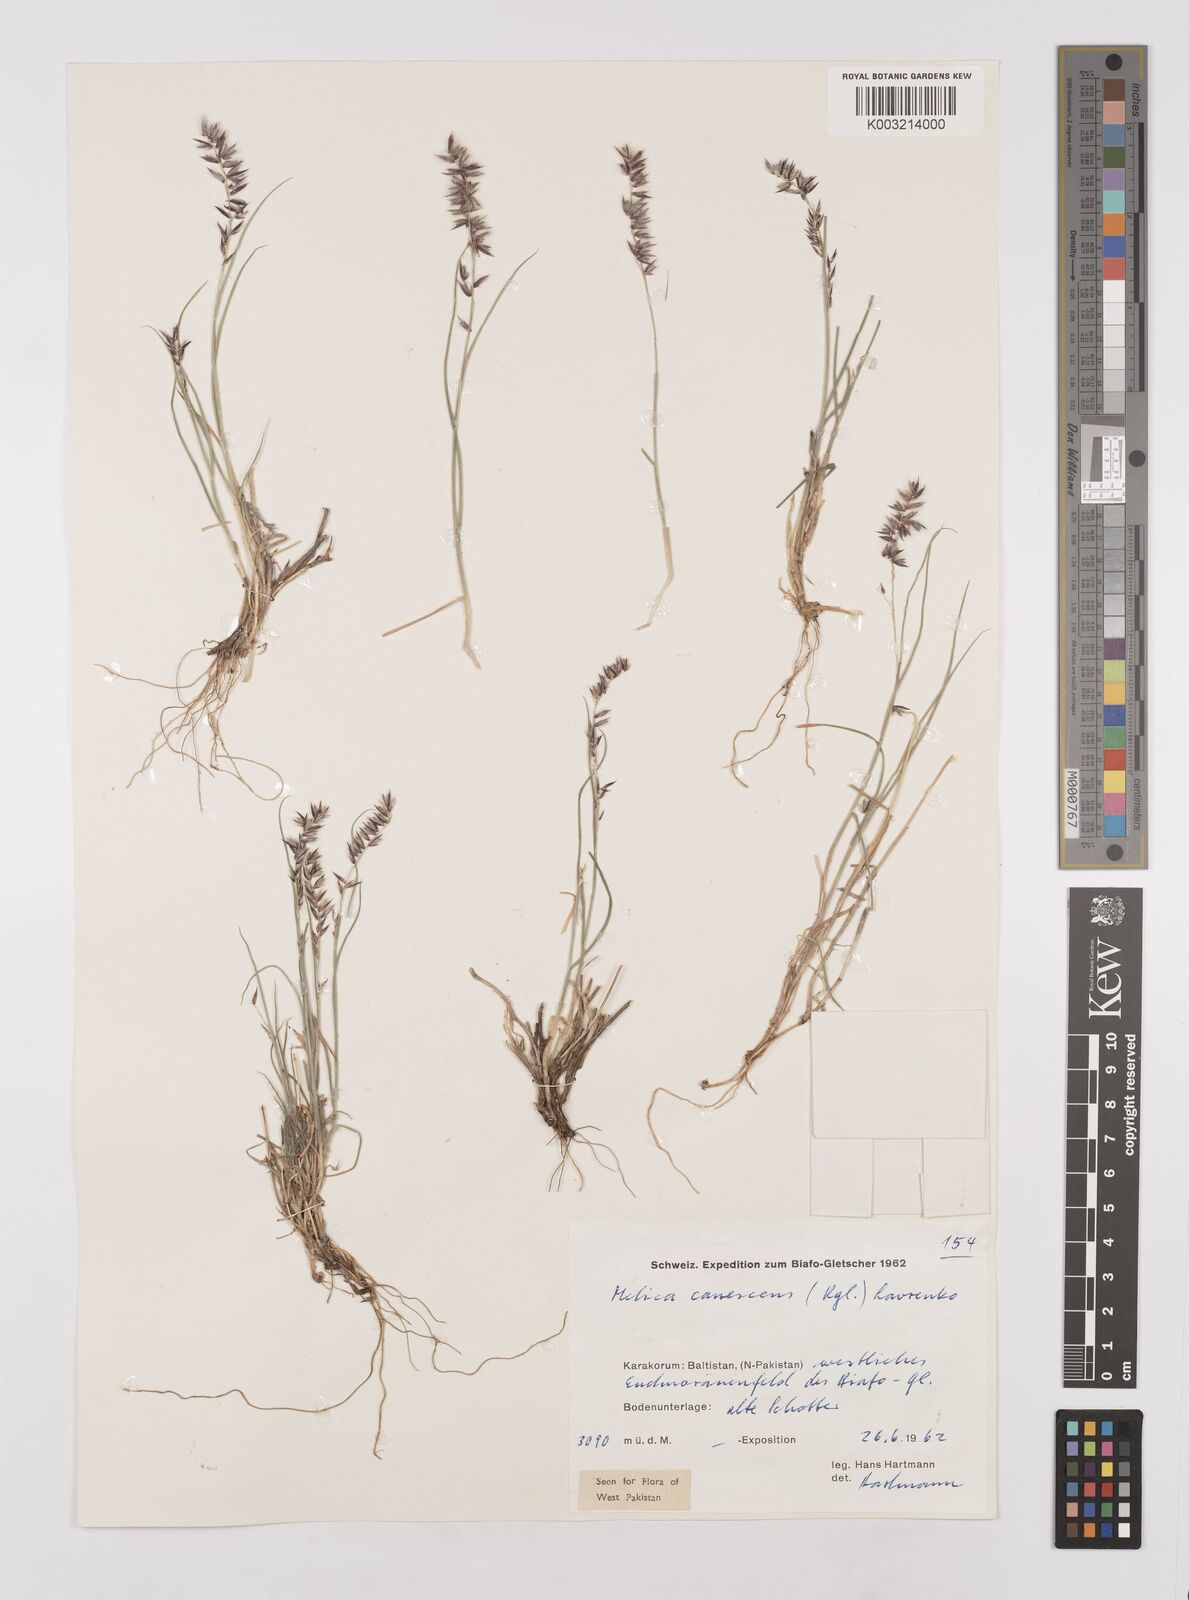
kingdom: Plantae
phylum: Tracheophyta
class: Liliopsida
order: Poales
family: Poaceae
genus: Melica
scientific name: Melica persica
